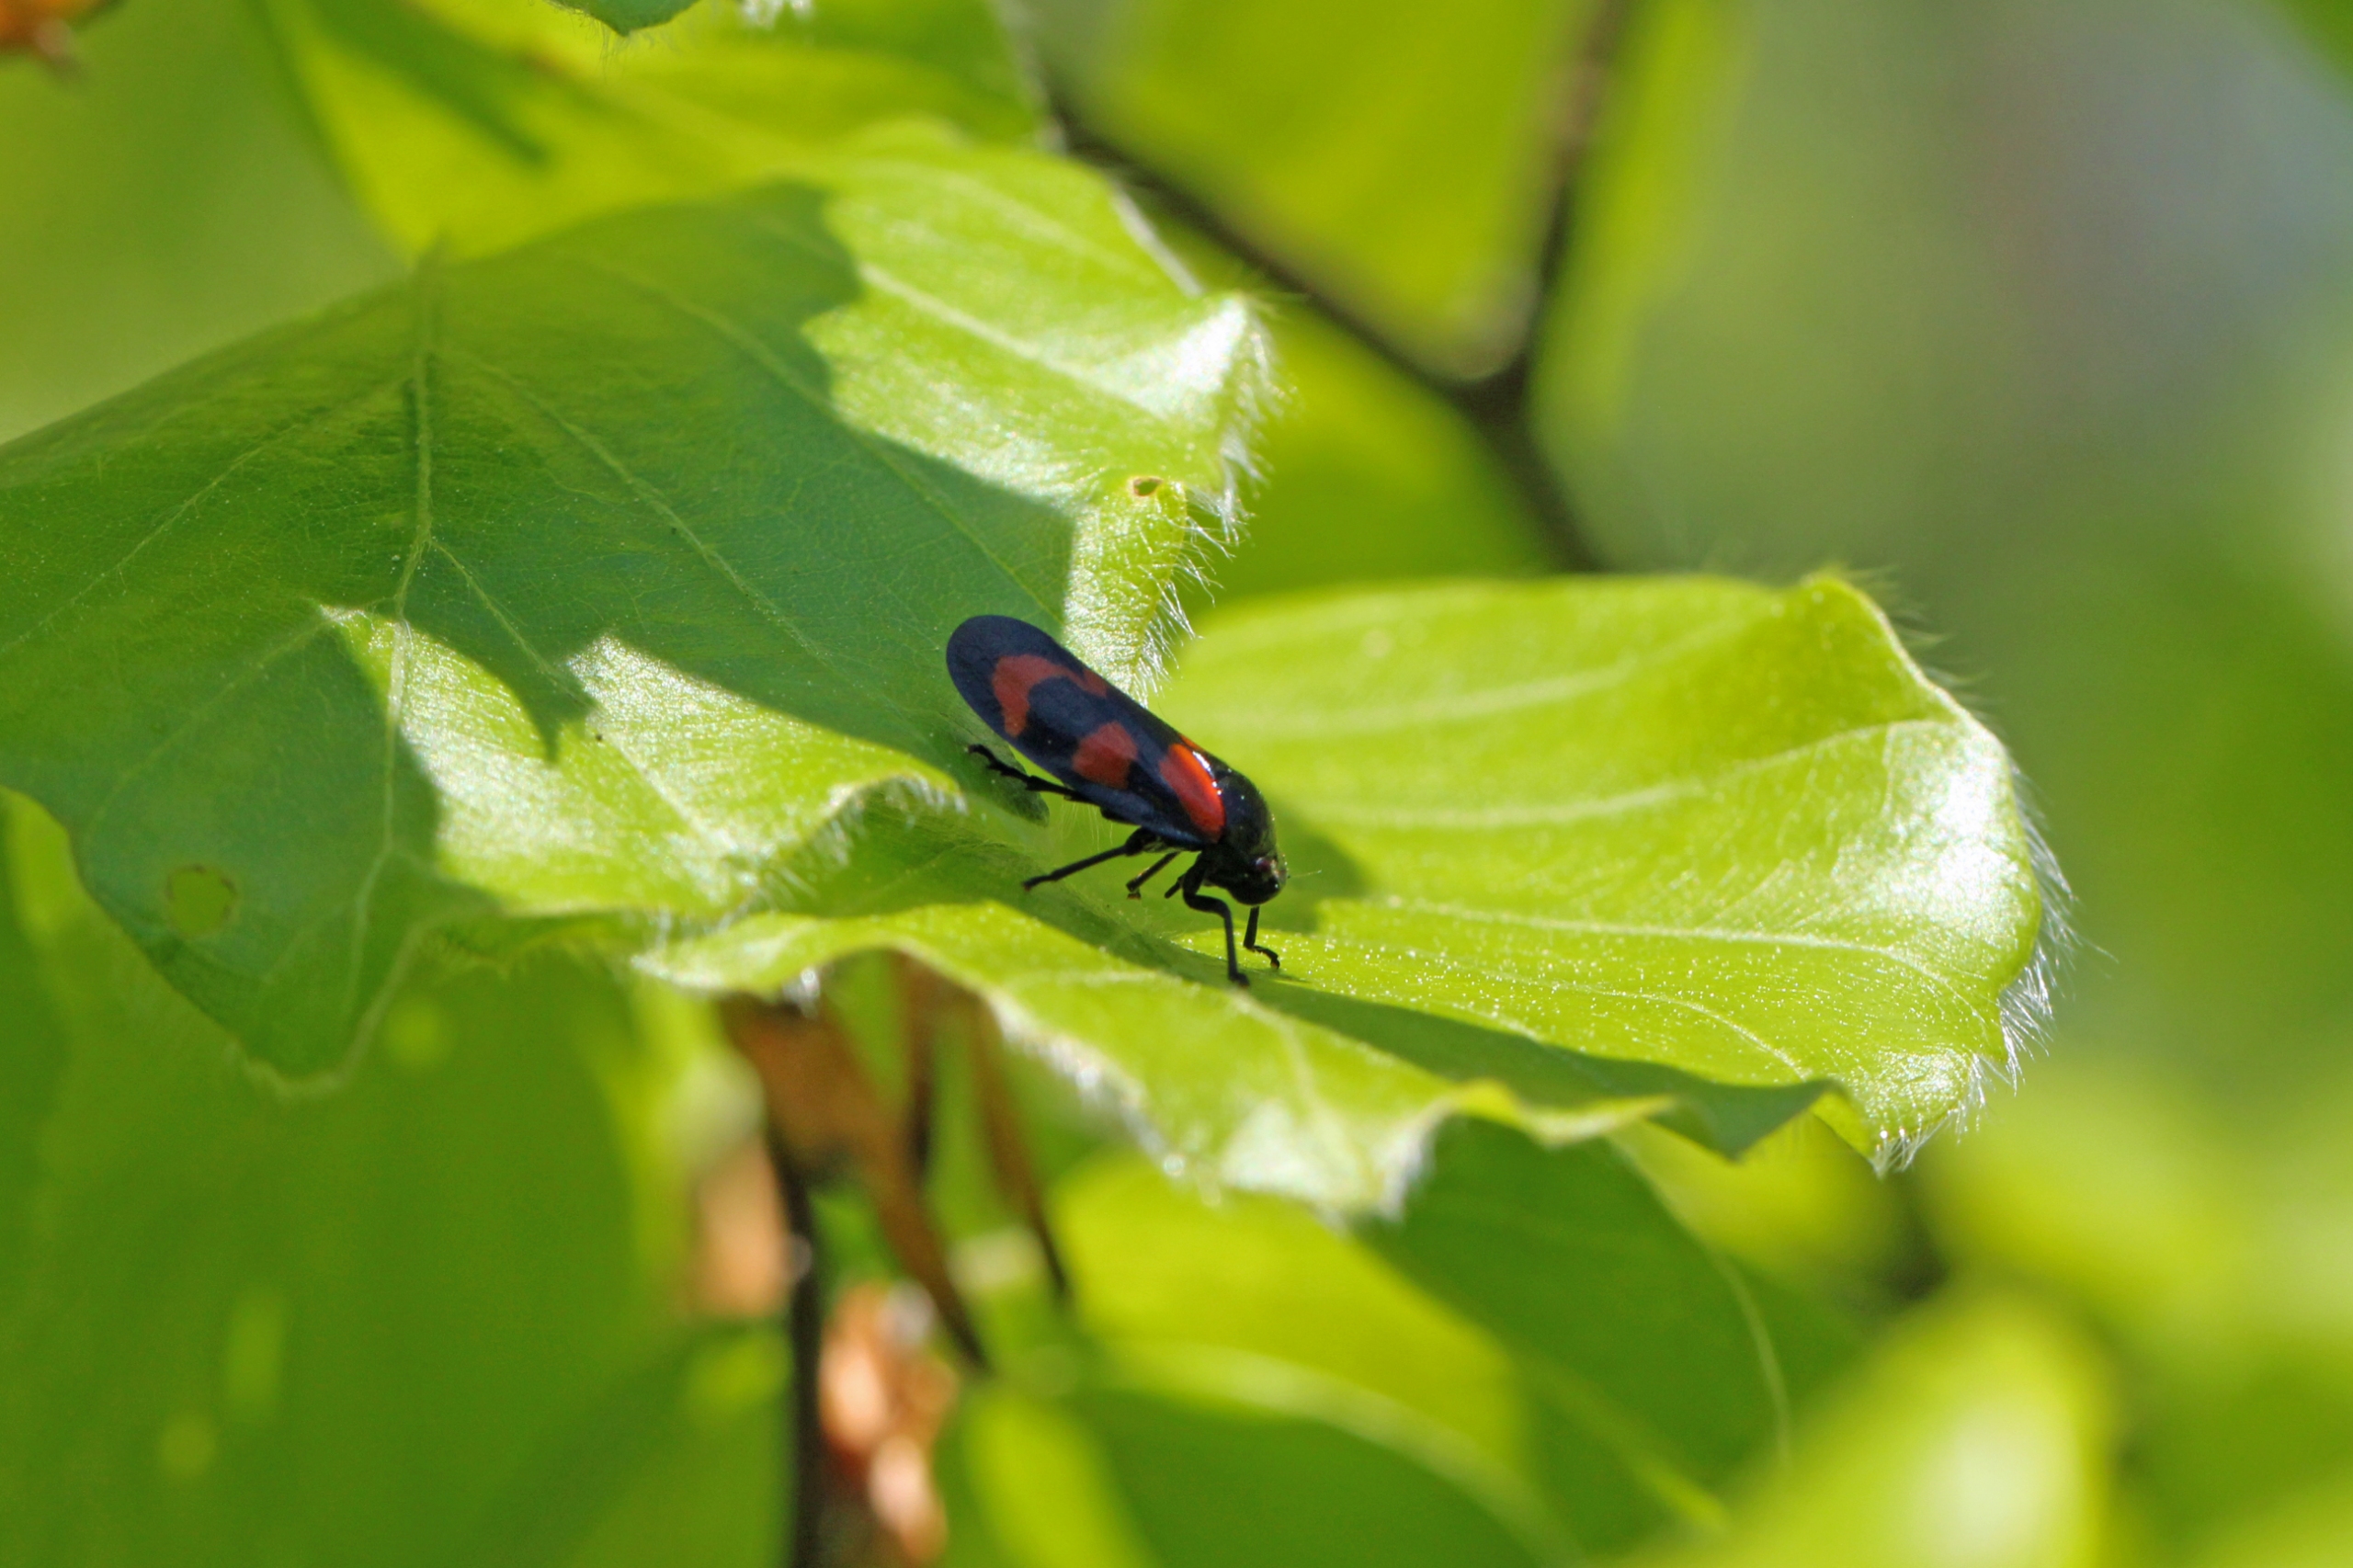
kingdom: Animalia
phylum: Arthropoda
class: Insecta
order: Hemiptera
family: Cercopidae
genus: Cercopis
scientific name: Cercopis vulnerata
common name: Blodcikade
